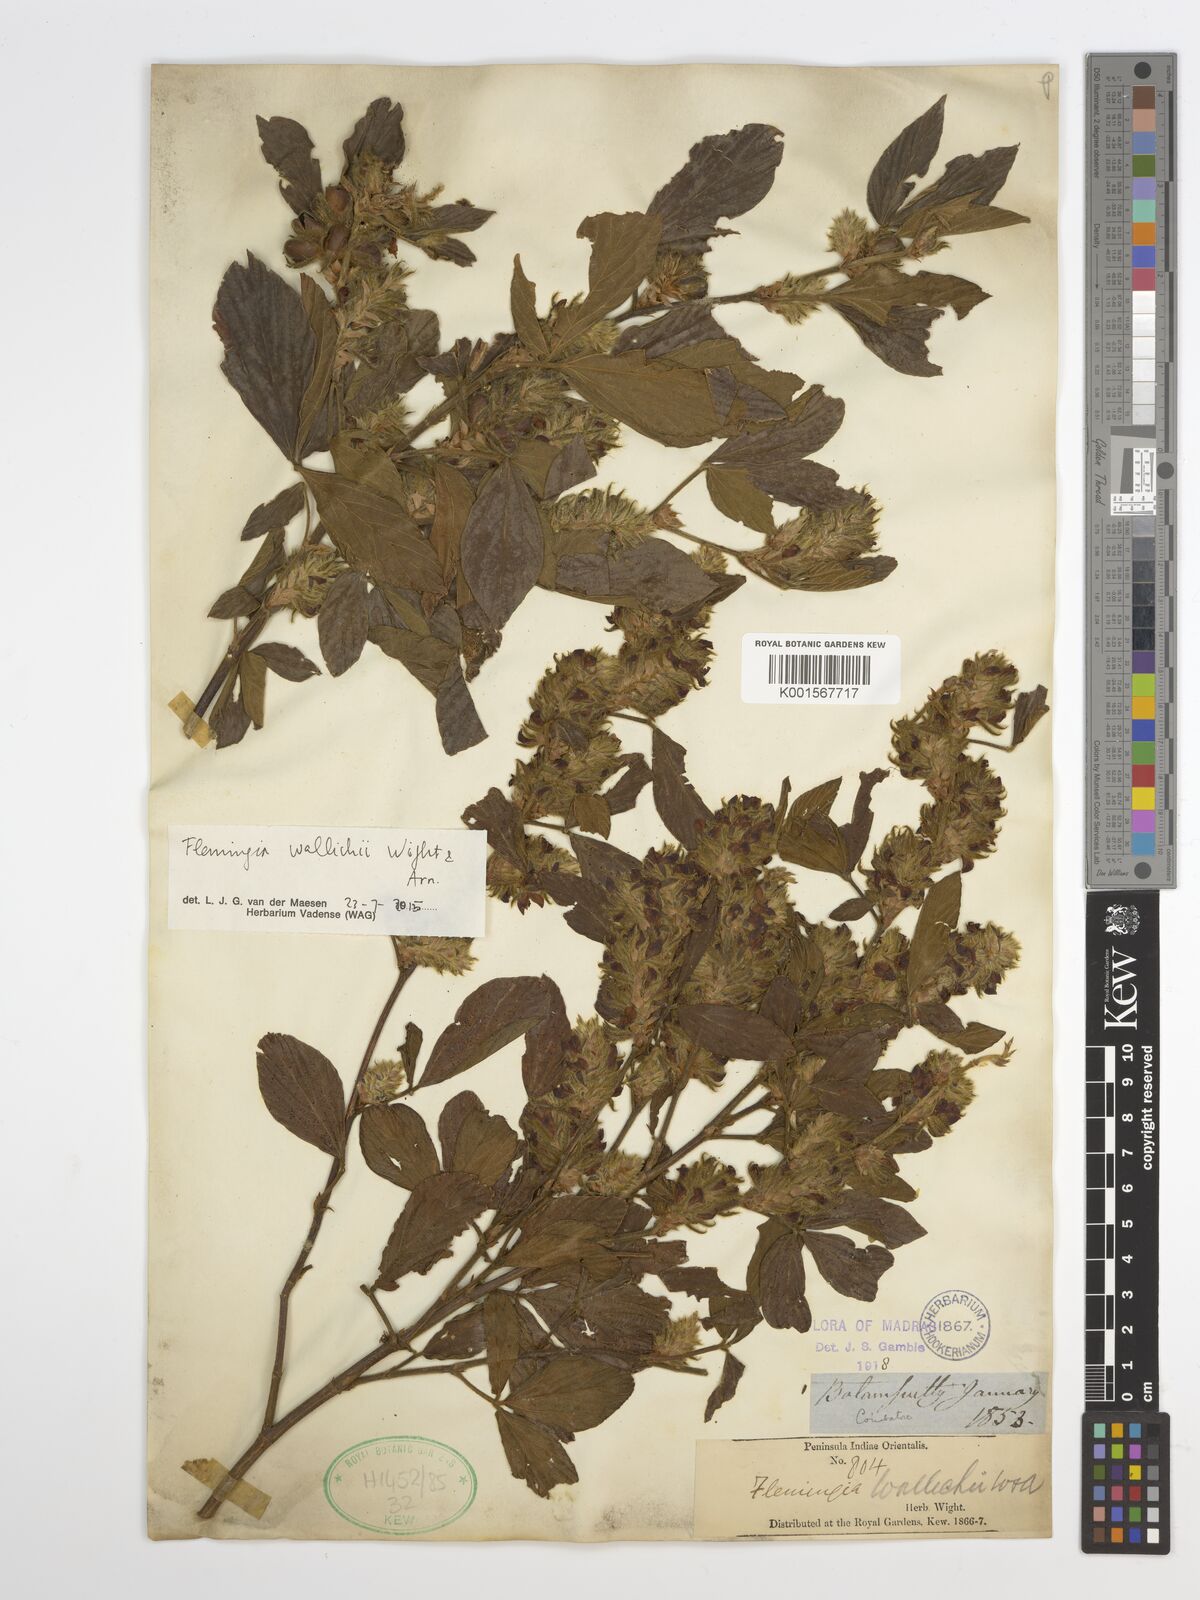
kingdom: Plantae
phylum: Tracheophyta
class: Magnoliopsida
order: Fabales
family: Fabaceae
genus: Flemingia
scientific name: Flemingia wallichii
